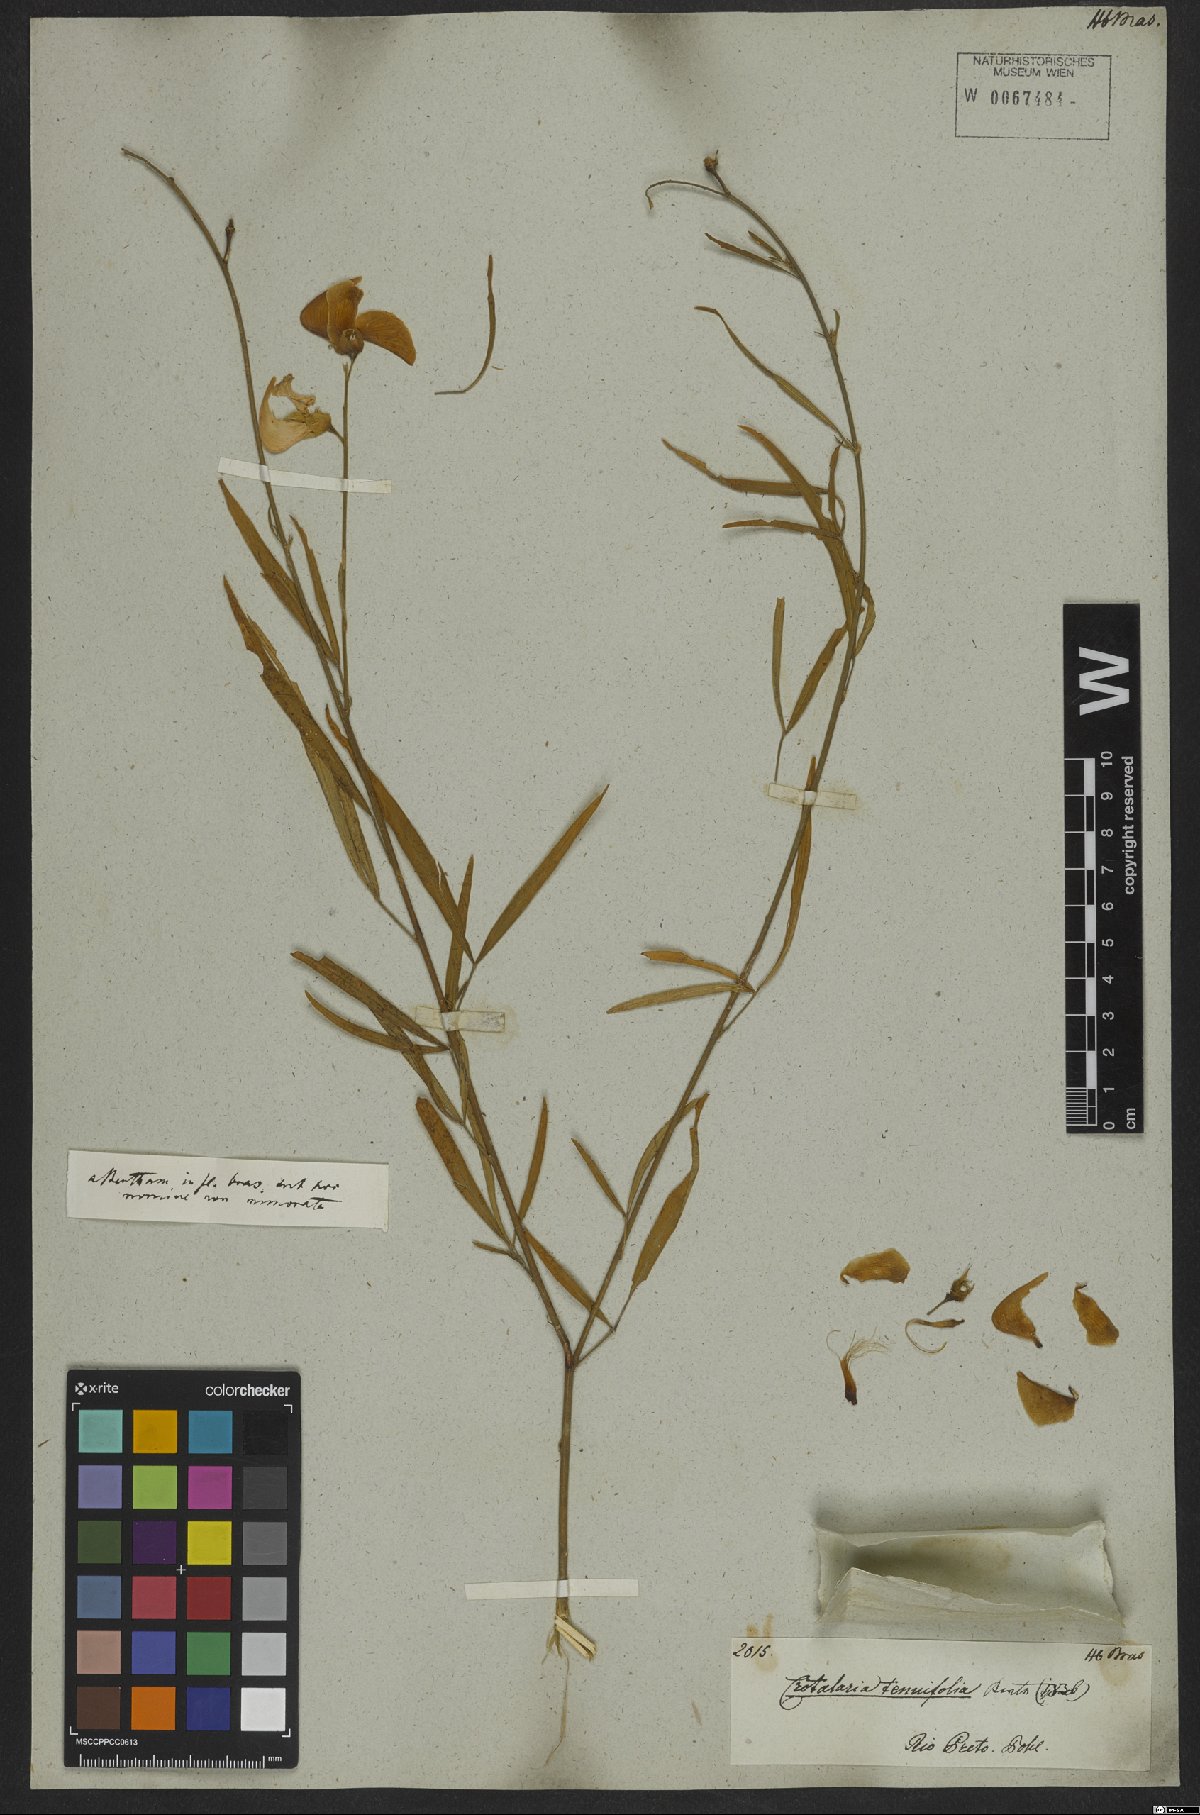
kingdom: Plantae
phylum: Tracheophyta
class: Magnoliopsida
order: Fabales
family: Fabaceae
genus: Crotalaria
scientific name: Crotalaria juncea
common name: Sunn hemp
